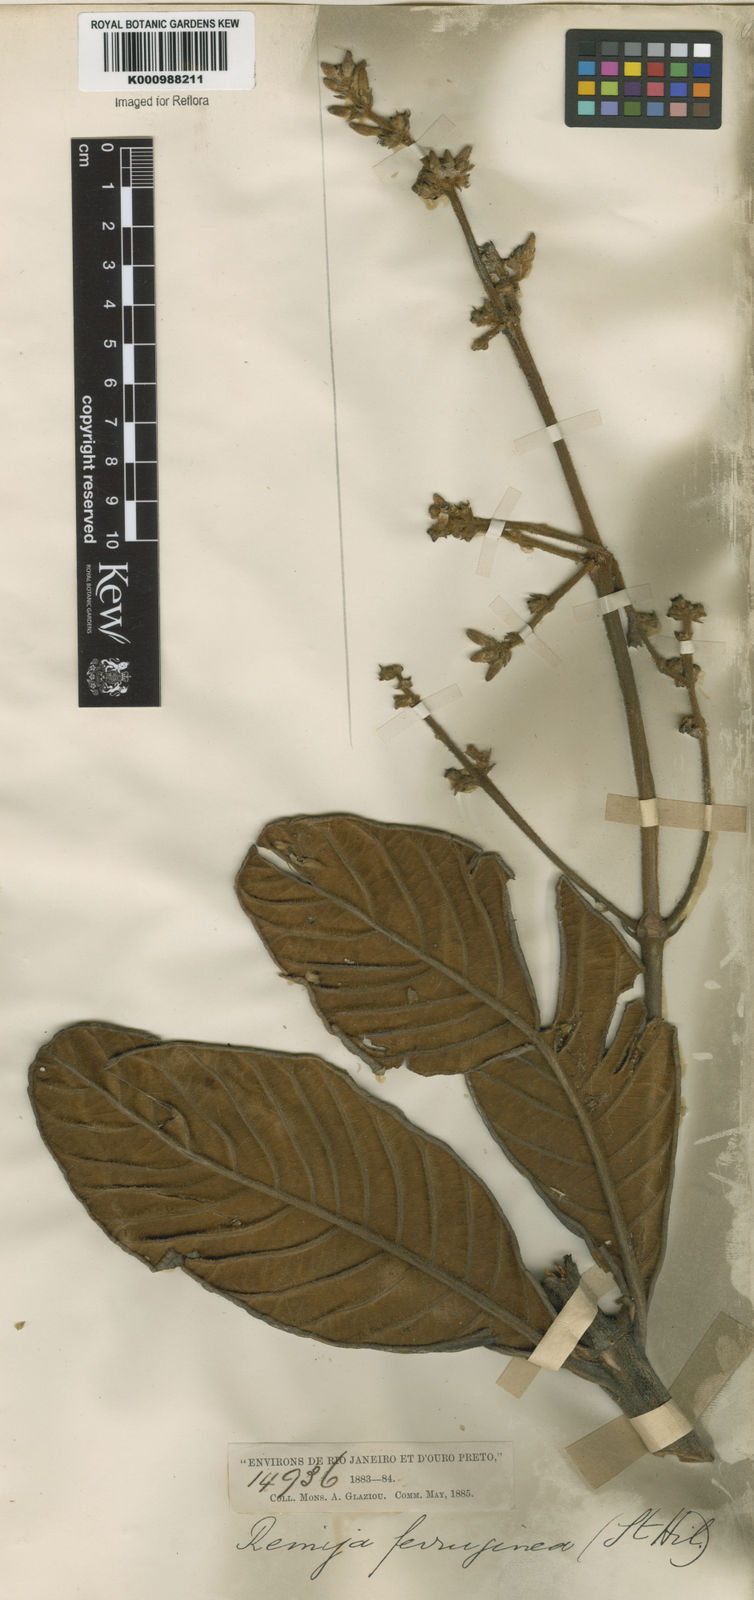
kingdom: Plantae
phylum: Tracheophyta
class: Magnoliopsida
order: Gentianales
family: Rubiaceae
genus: Remijia
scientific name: Remijia ferruginea
